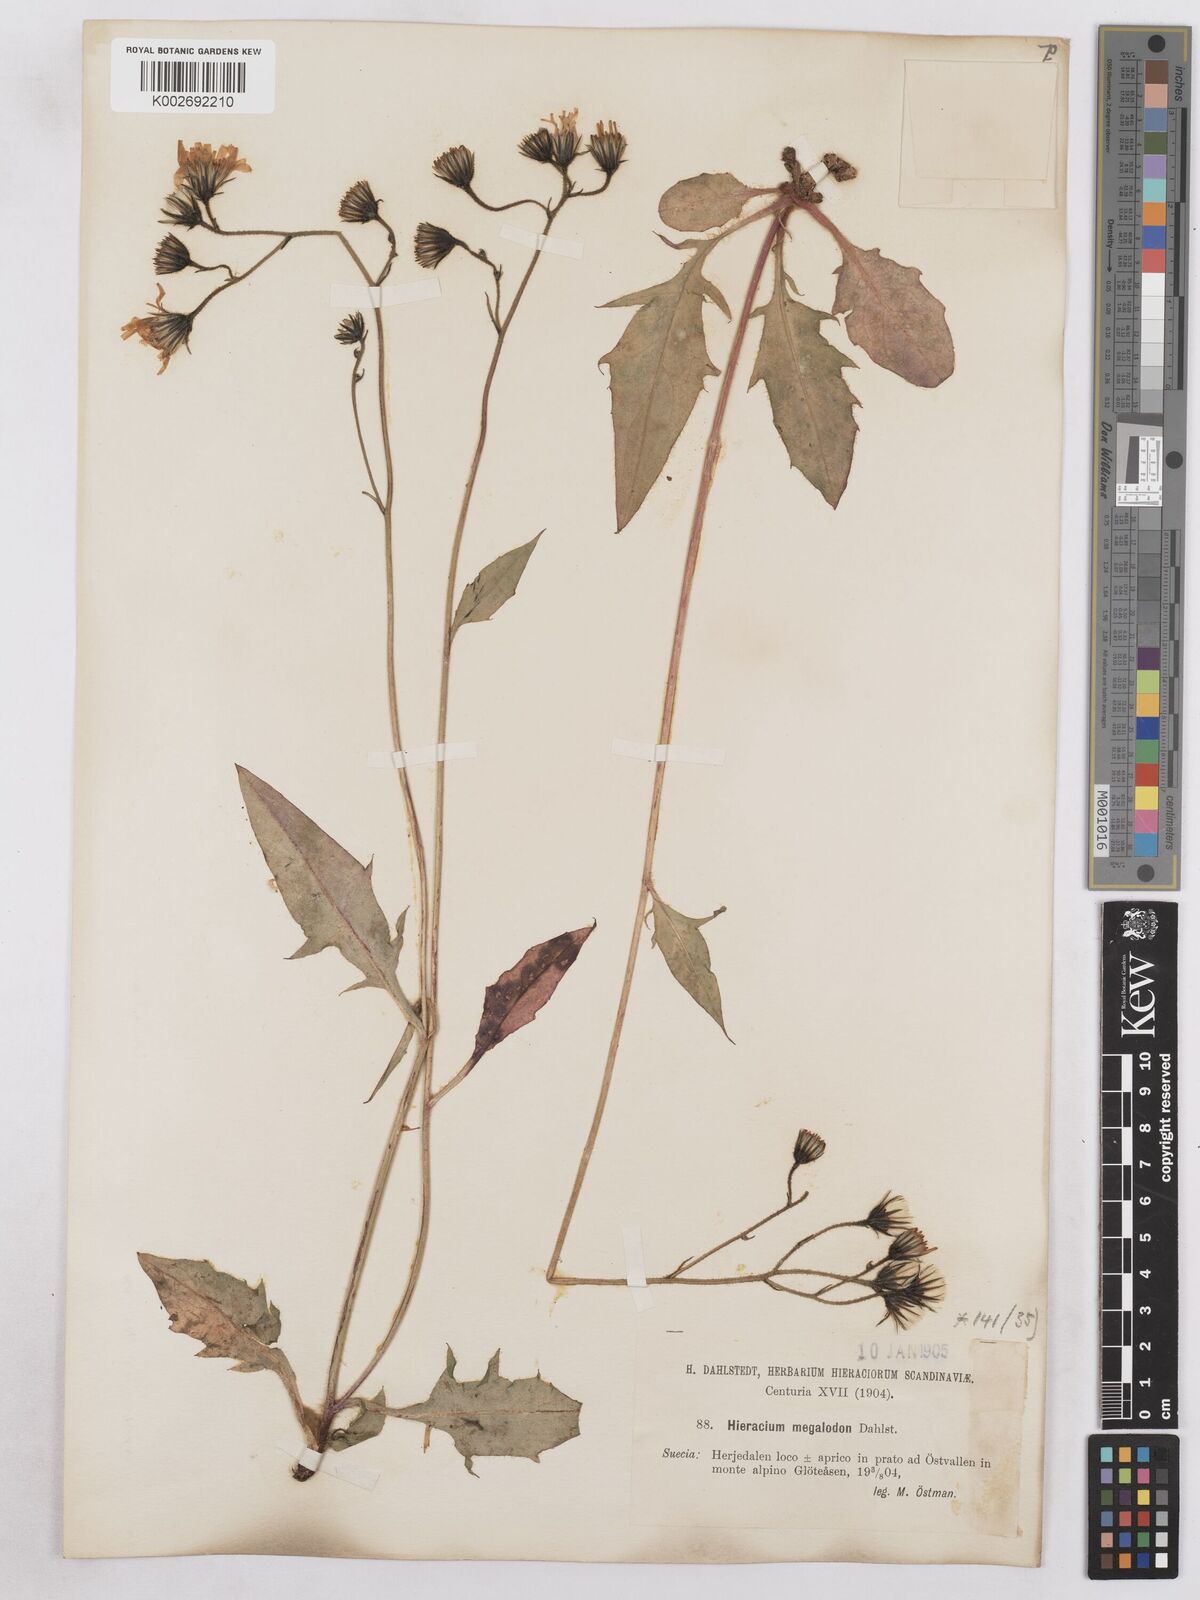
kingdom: Plantae
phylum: Tracheophyta
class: Magnoliopsida
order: Asterales
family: Asteraceae
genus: Hieracium
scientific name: Hieracium diaphanoides
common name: Fine-bracted hawkweed
